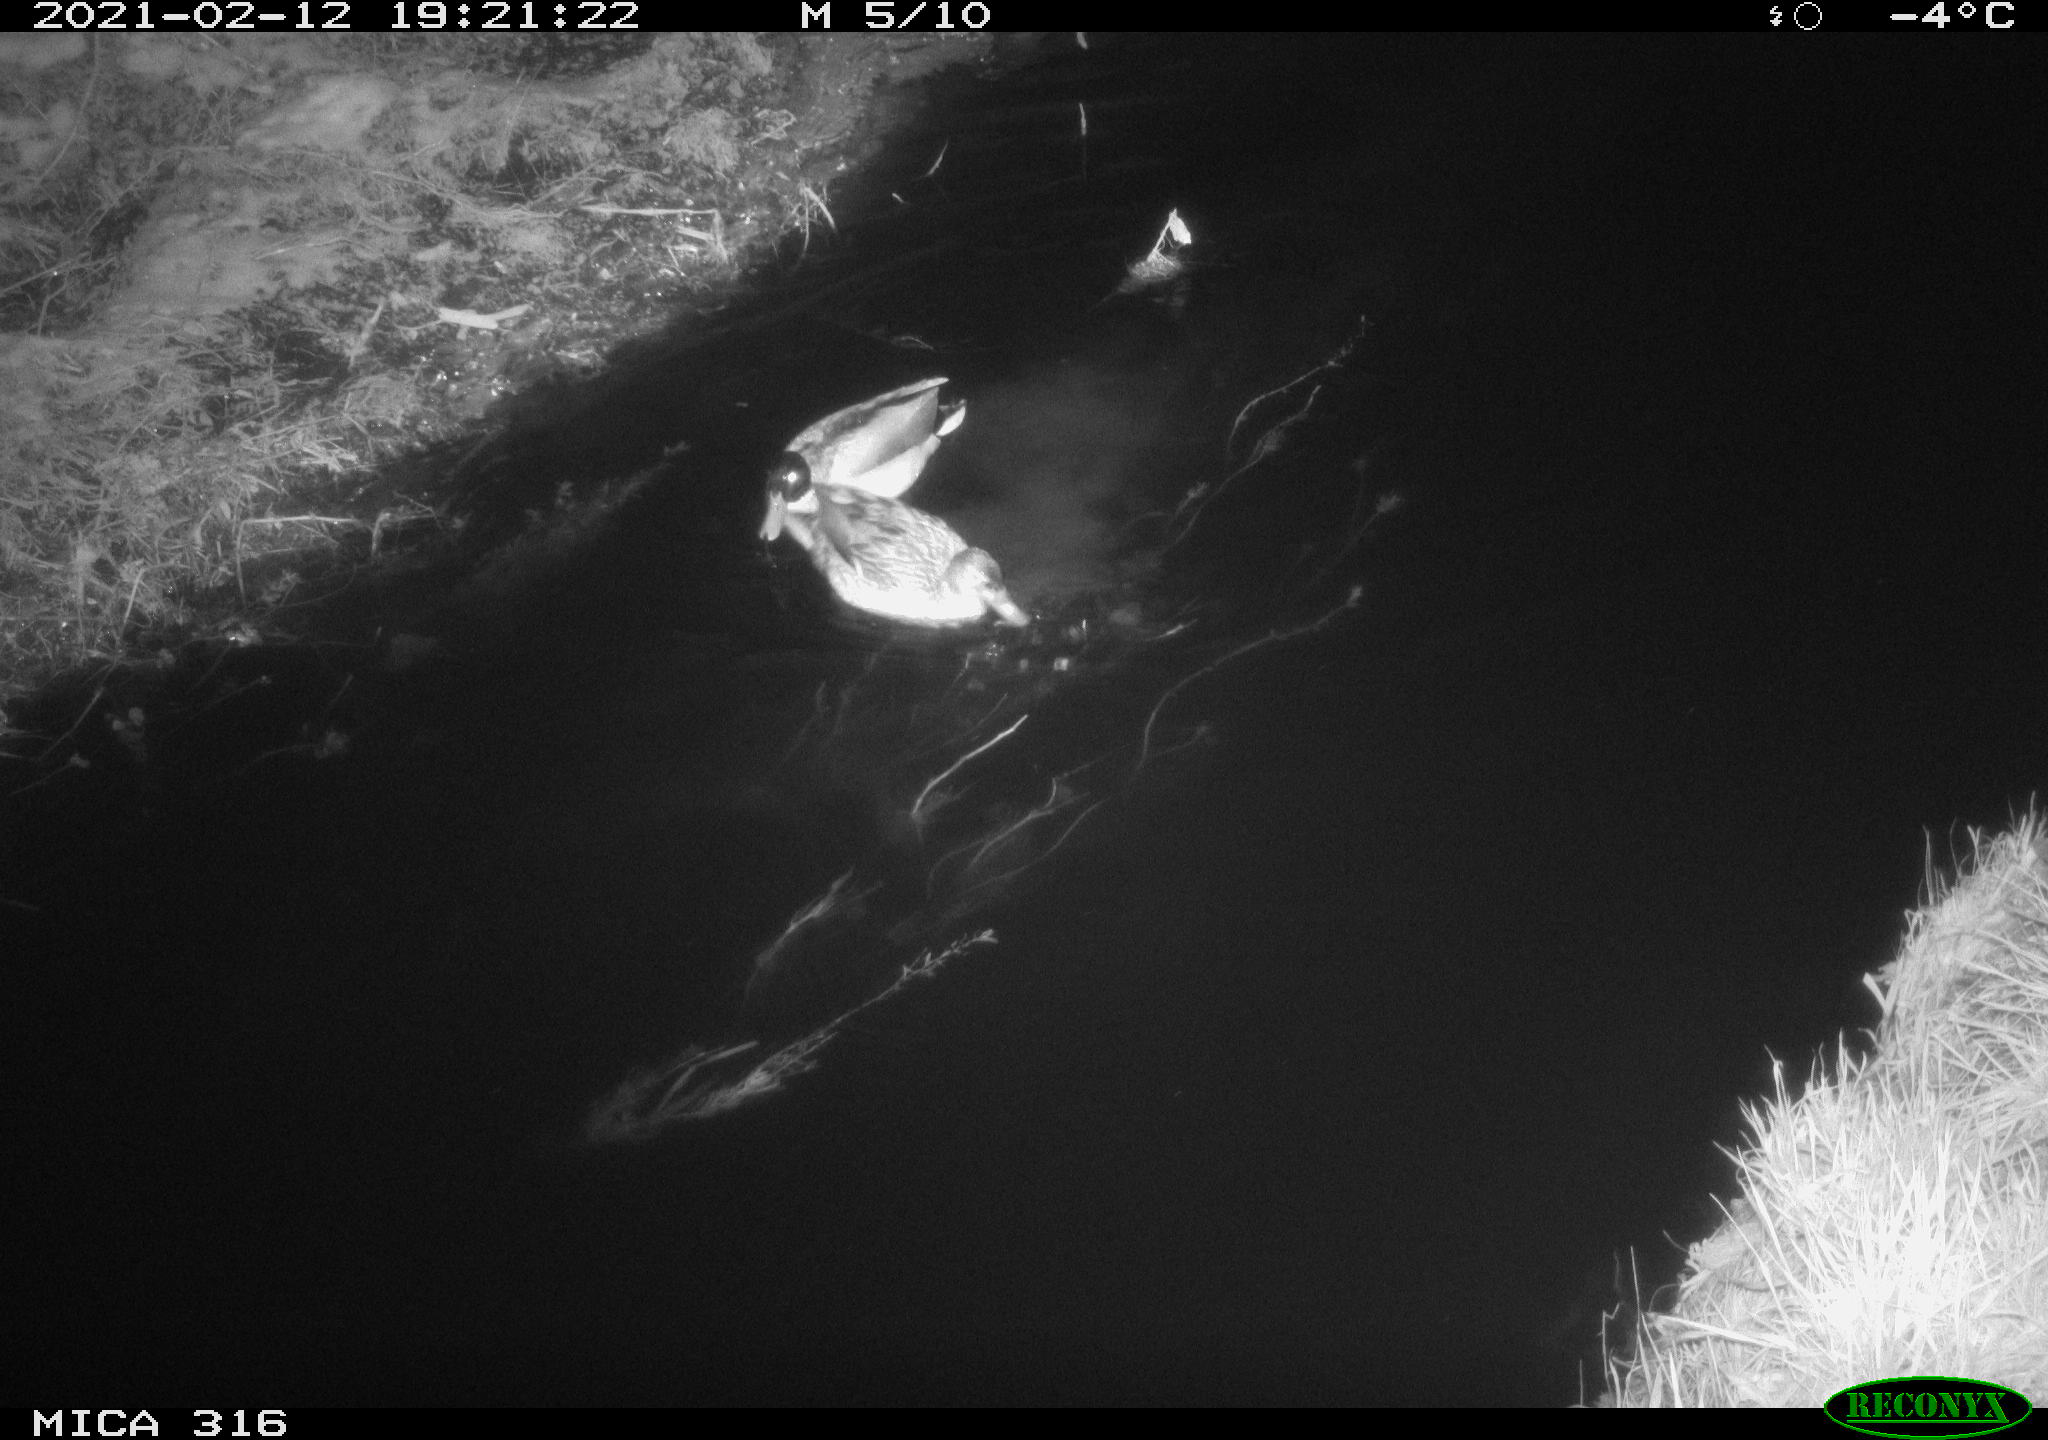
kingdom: Animalia
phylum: Chordata
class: Aves
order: Anseriformes
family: Anatidae
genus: Anas
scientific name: Anas platyrhynchos
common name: Mallard
